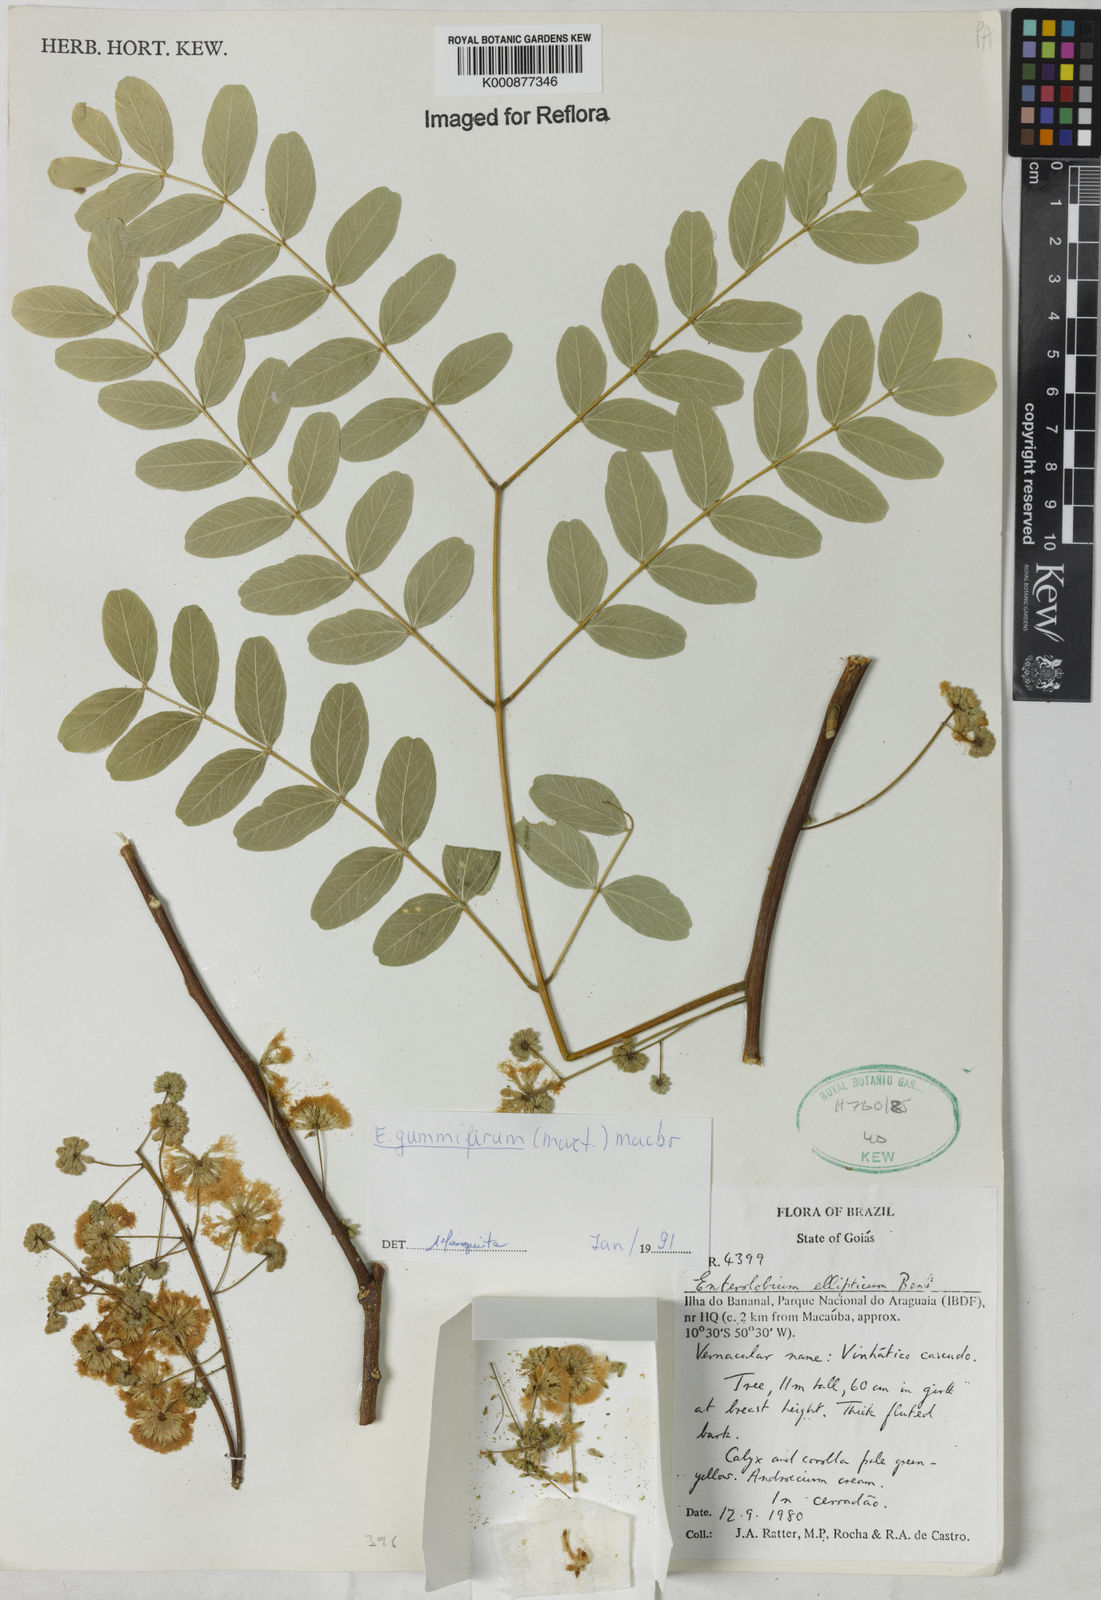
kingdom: Plantae
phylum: Tracheophyta
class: Magnoliopsida
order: Fabales
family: Fabaceae
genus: Enterolobium
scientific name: Enterolobium gummiferum
